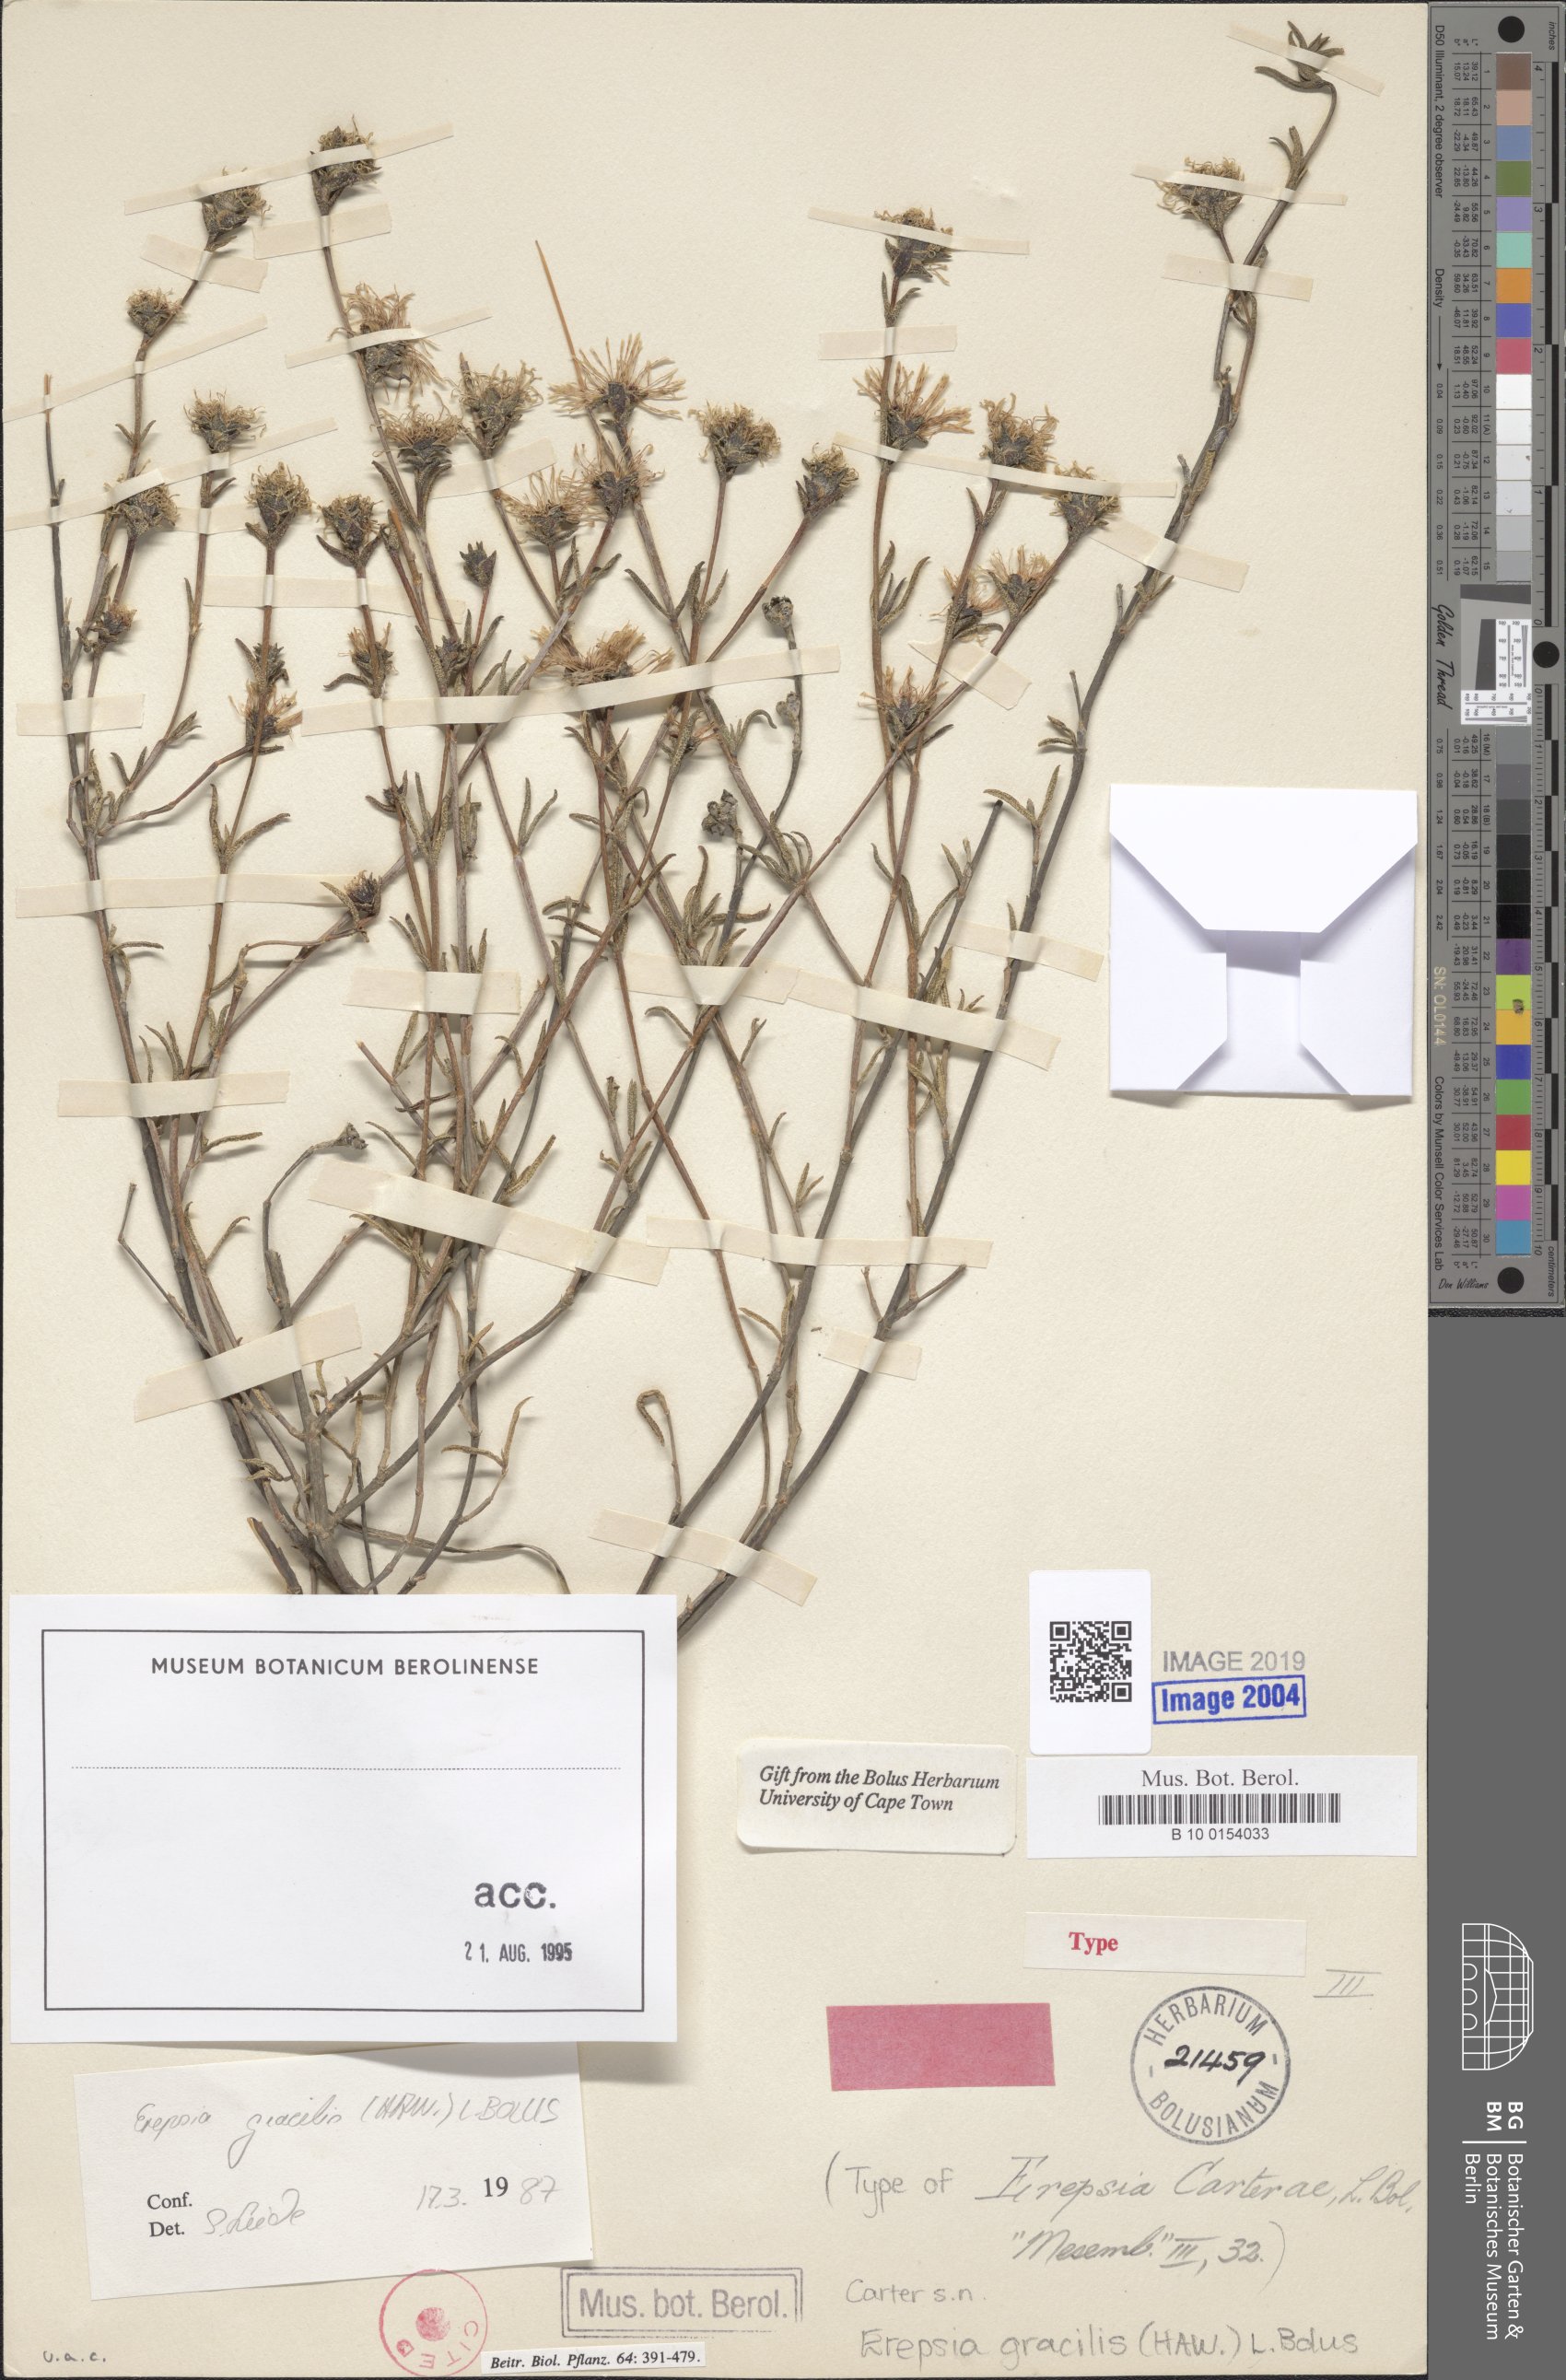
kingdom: Plantae
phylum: Tracheophyta
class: Magnoliopsida
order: Caryophyllales
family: Aizoaceae
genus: Erepsia
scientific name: Erepsia gracilis
